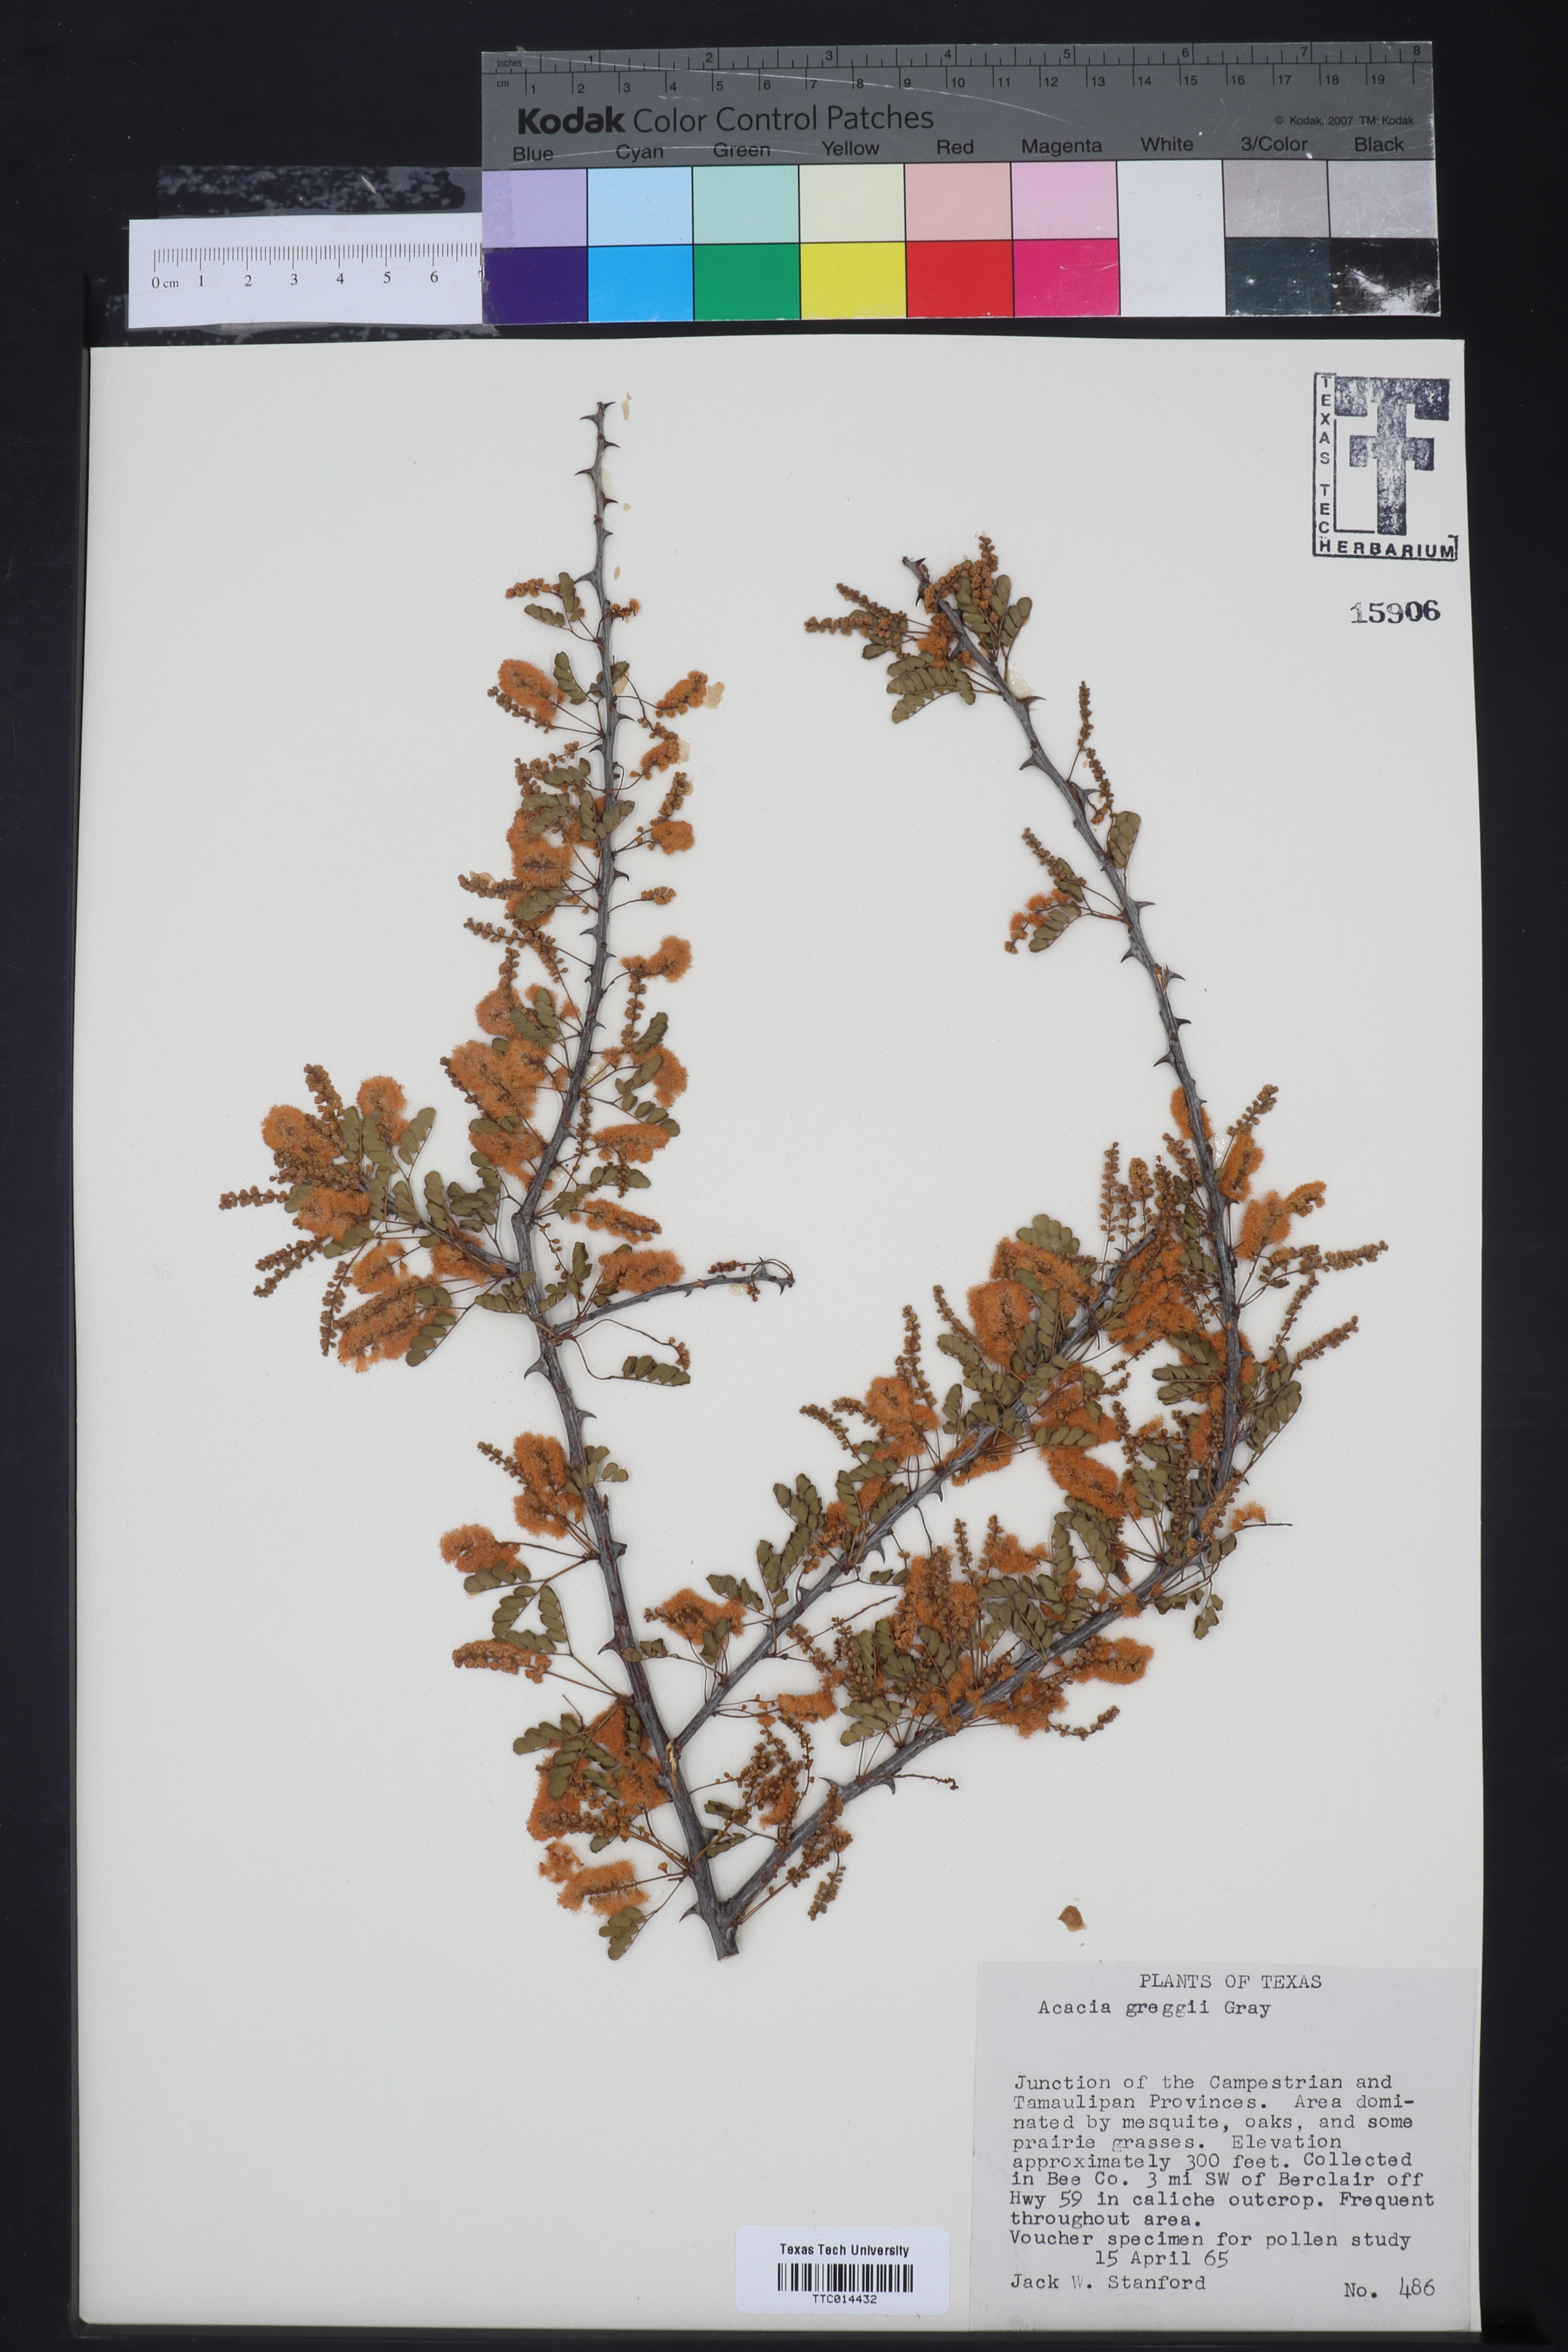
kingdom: Plantae
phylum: Tracheophyta
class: Magnoliopsida
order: Fabales
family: Fabaceae
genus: Senegalia
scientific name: Senegalia greggii
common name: Texas-mimosa
